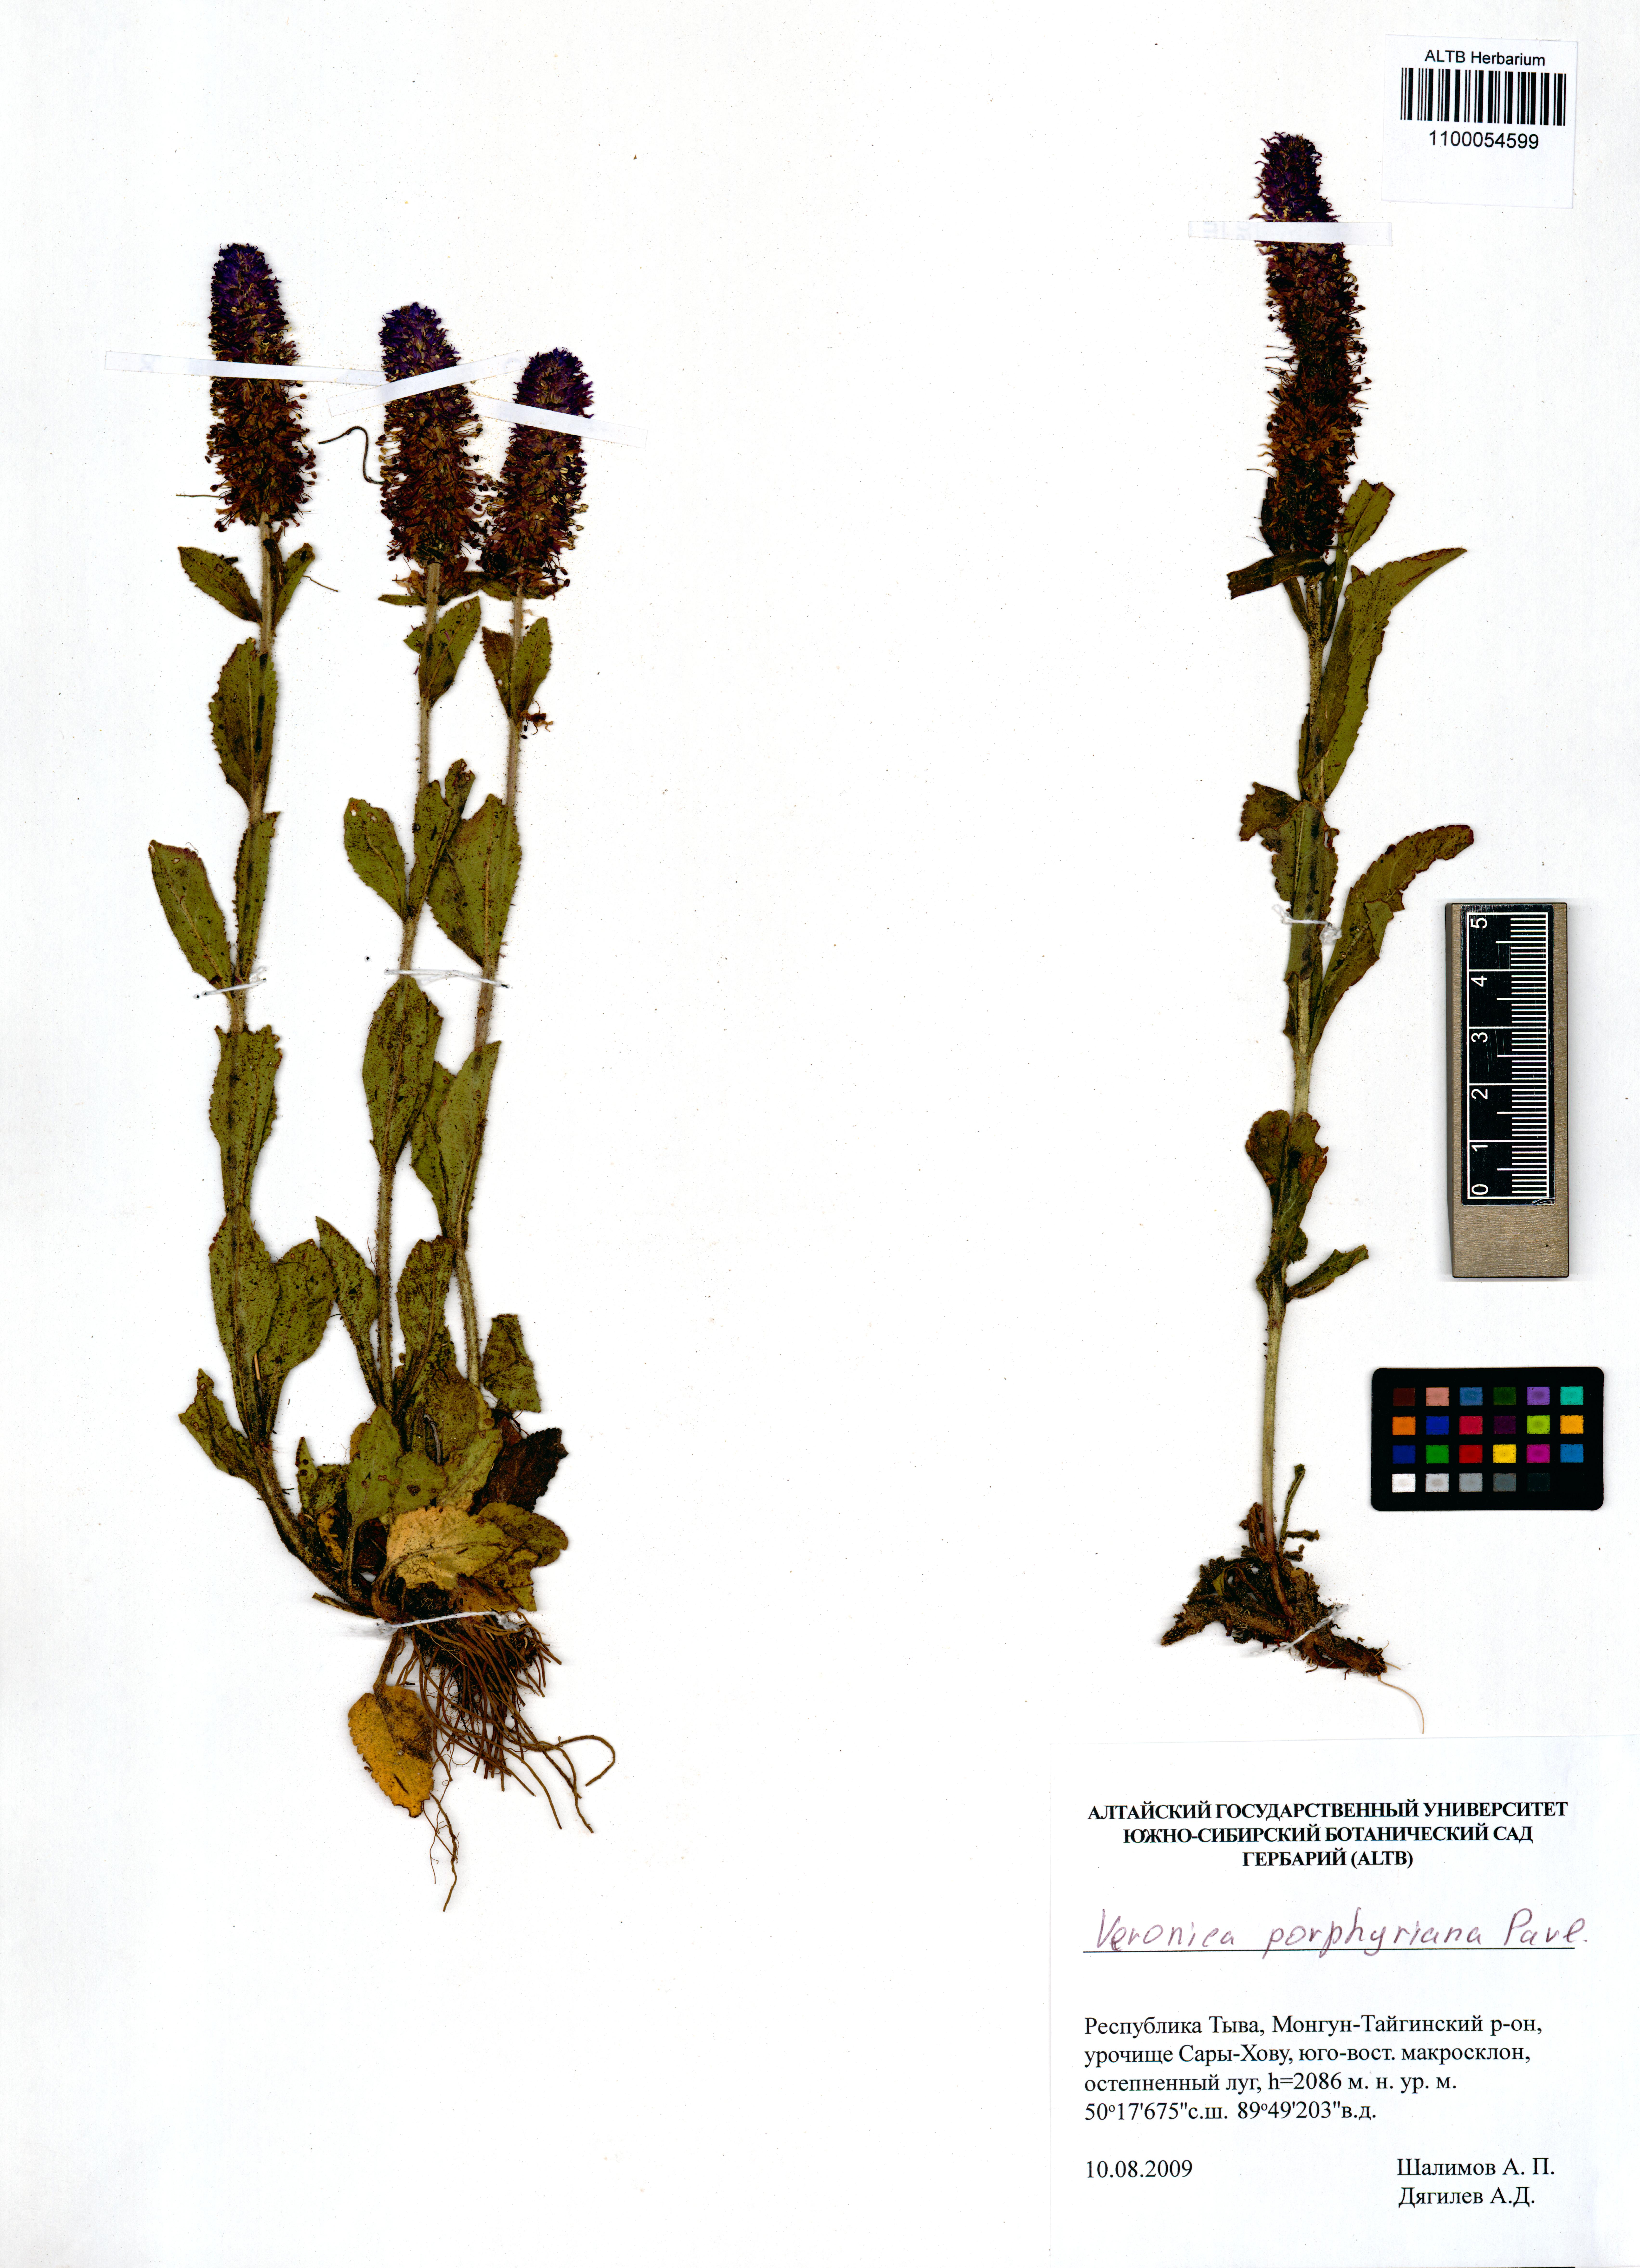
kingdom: Plantae
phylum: Tracheophyta
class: Magnoliopsida
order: Lamiales
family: Plantaginaceae
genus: Veronica
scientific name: Veronica porphyriana
